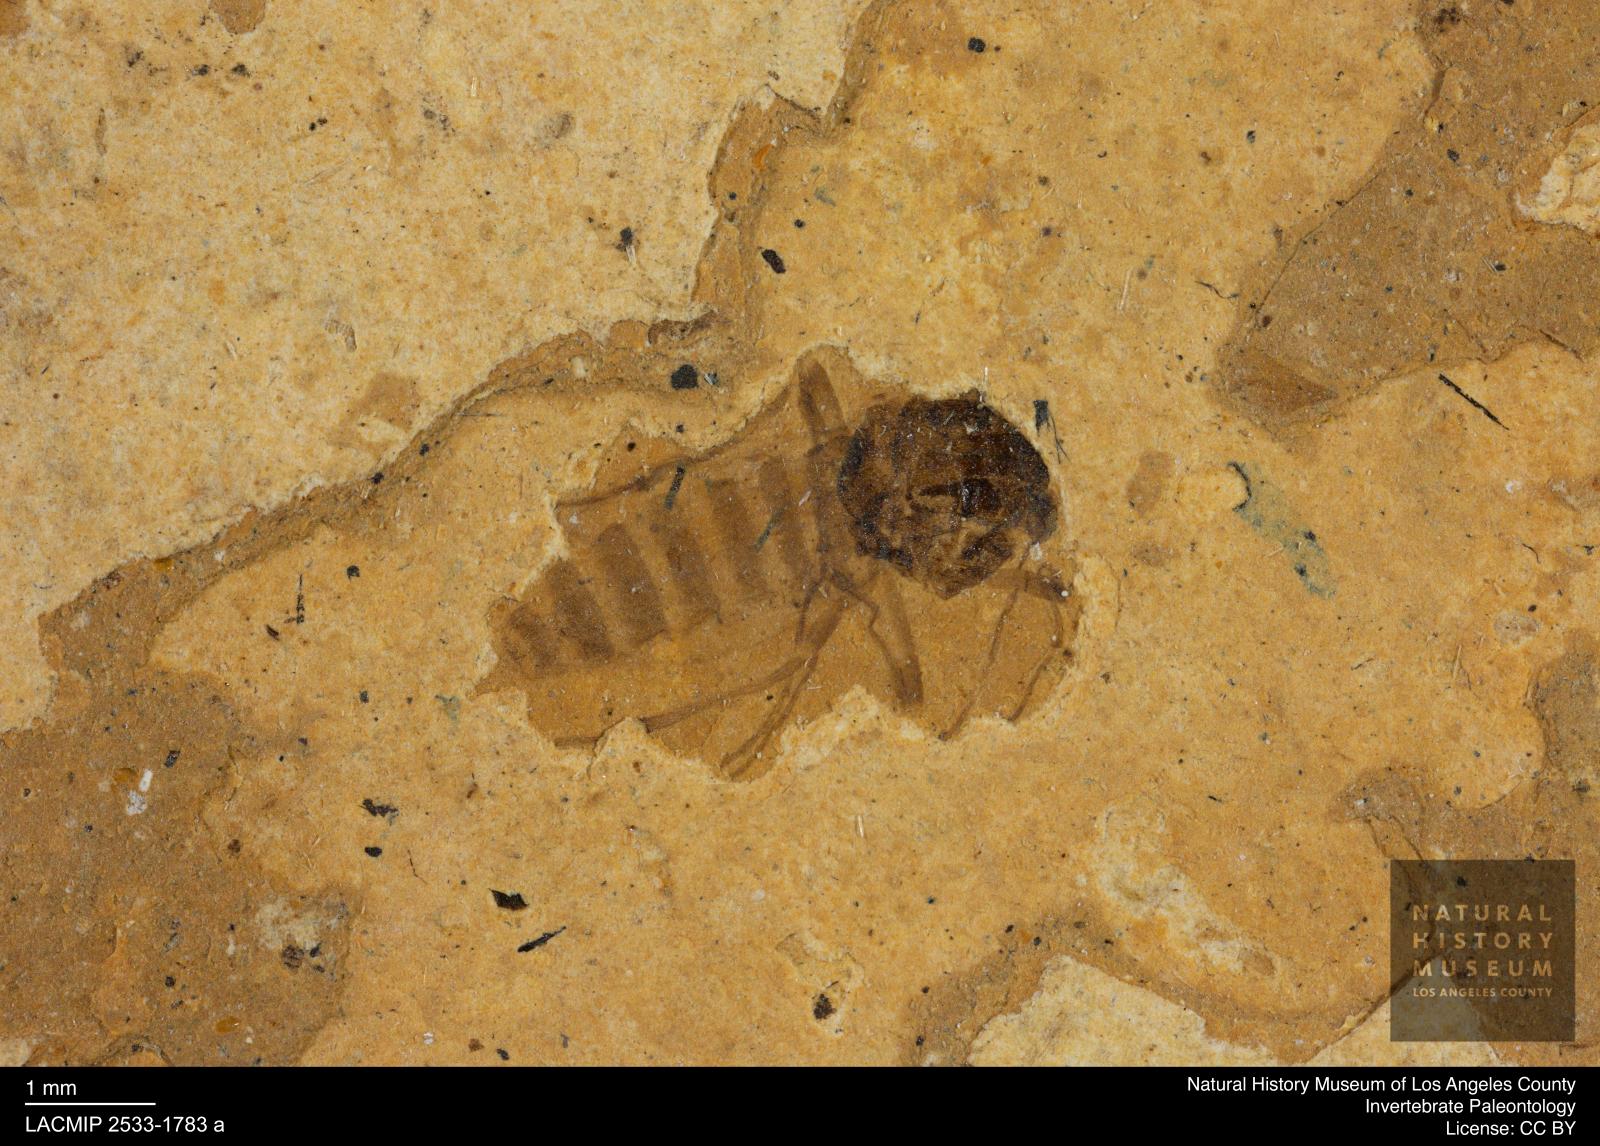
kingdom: Animalia
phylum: Arthropoda
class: Insecta
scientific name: Insecta
